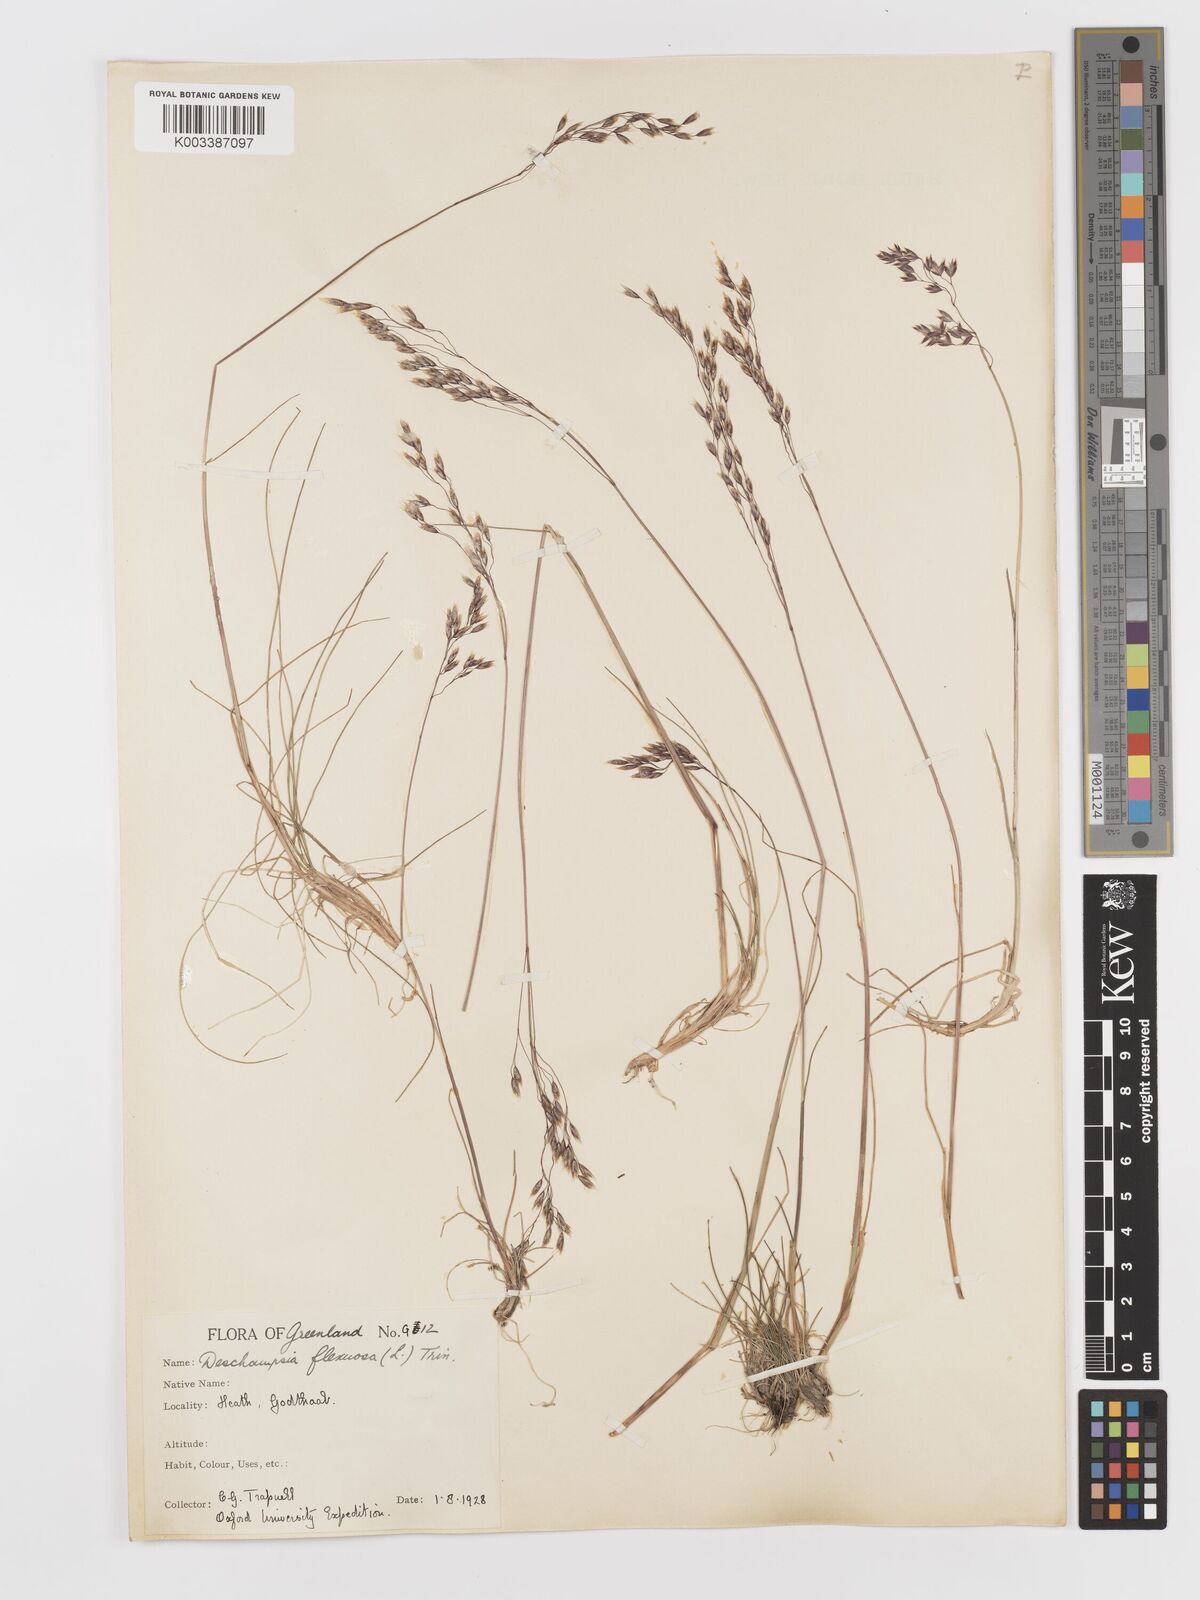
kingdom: Plantae
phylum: Tracheophyta
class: Liliopsida
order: Poales
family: Poaceae
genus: Avenella
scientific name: Avenella flexuosa
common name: Wavy hairgrass
